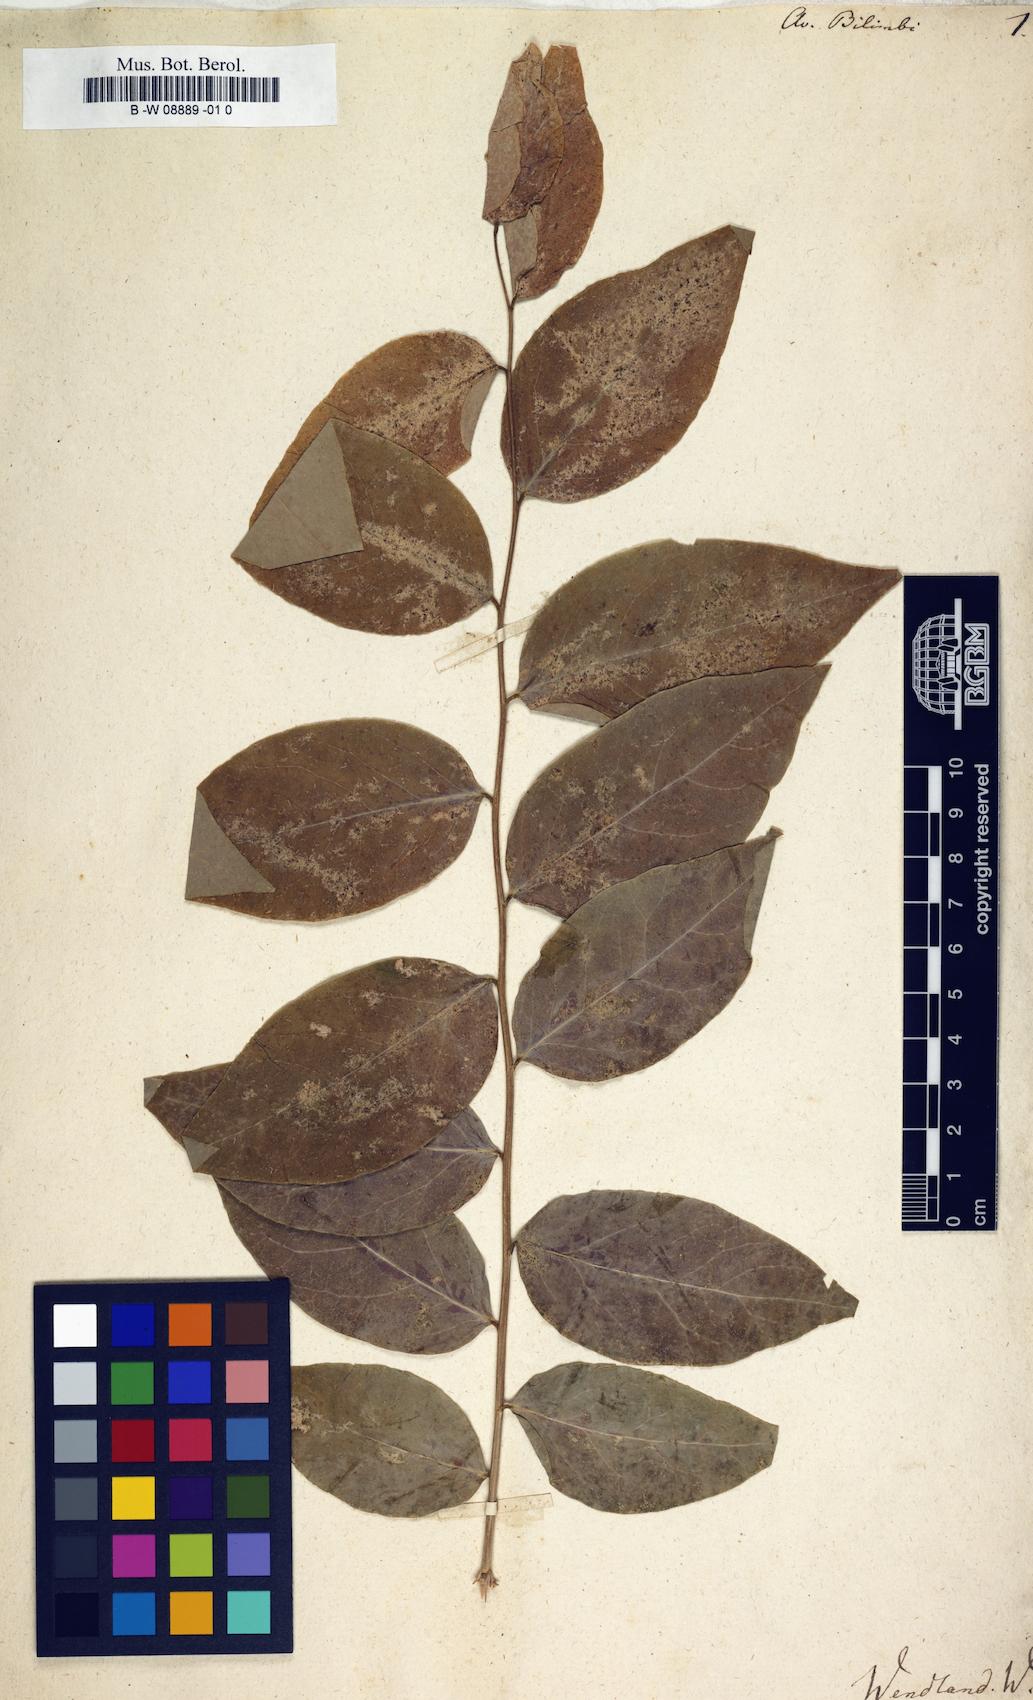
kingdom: Plantae
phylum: Tracheophyta
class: Magnoliopsida
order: Oxalidales
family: Oxalidaceae
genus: Averrhoa
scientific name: Averrhoa bilimbi
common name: Bilimbi
